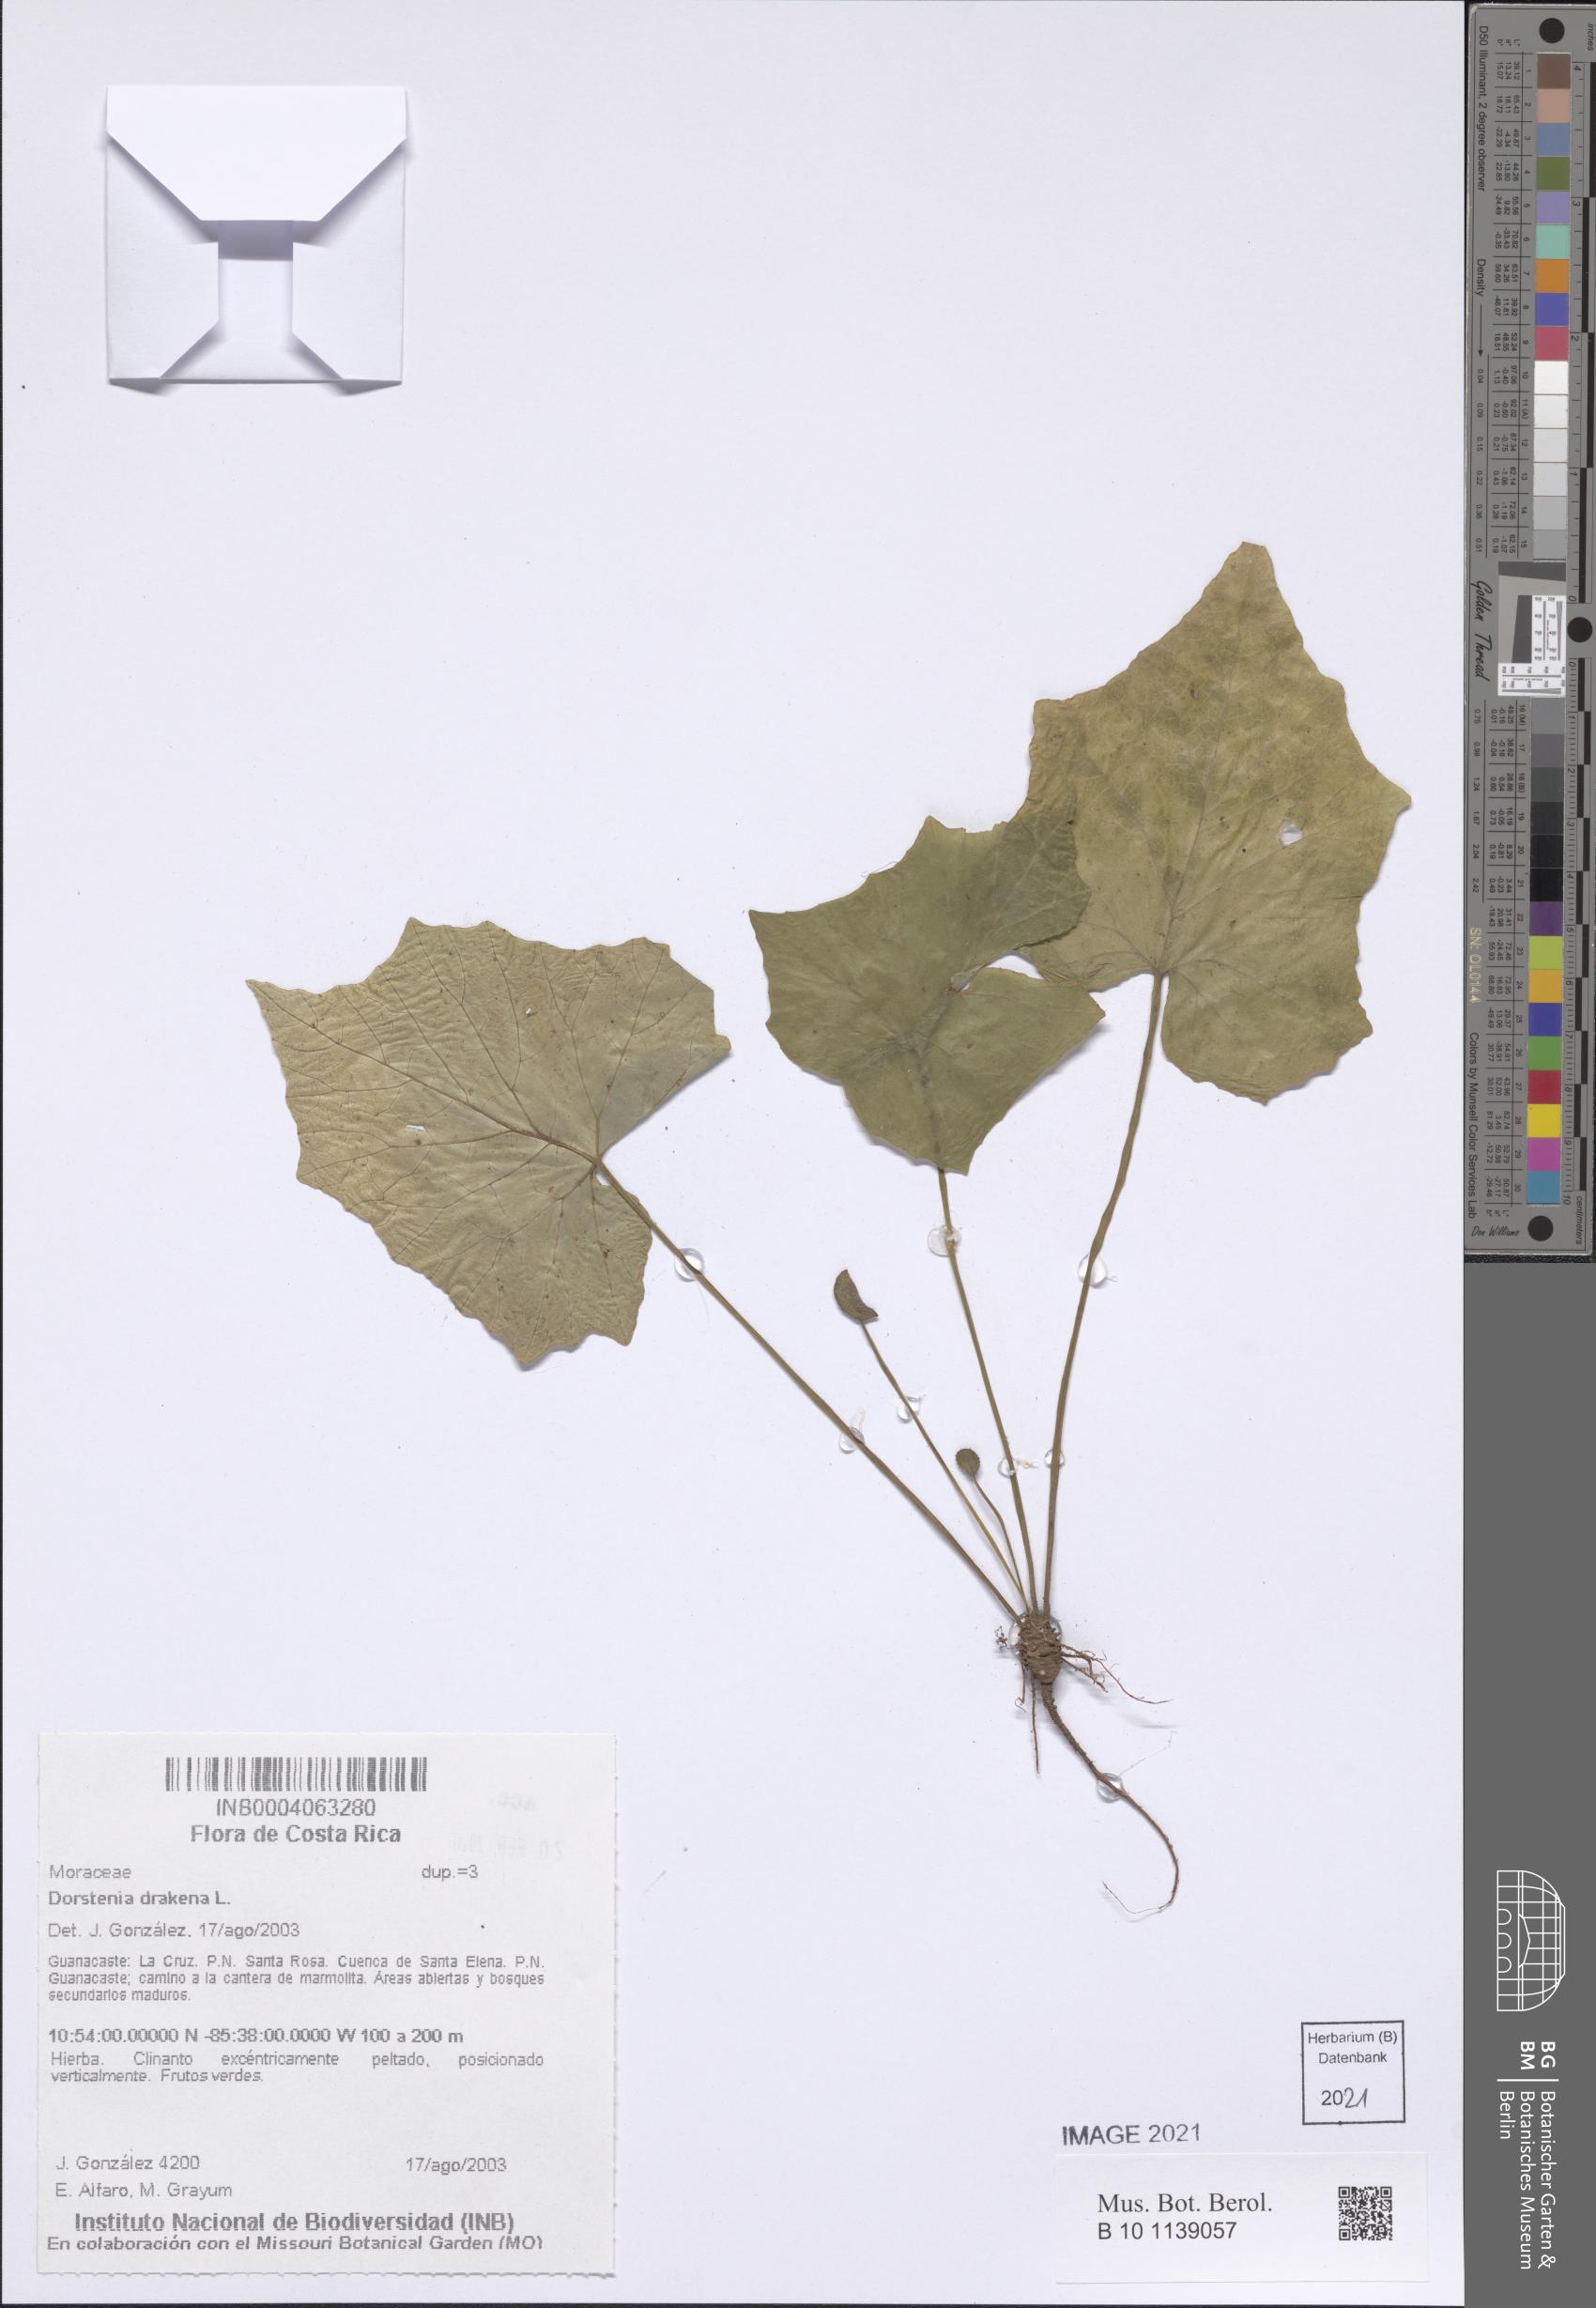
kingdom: Plantae
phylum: Tracheophyta
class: Magnoliopsida
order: Rosales
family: Moraceae
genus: Dorstenia
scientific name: Dorstenia drakena
